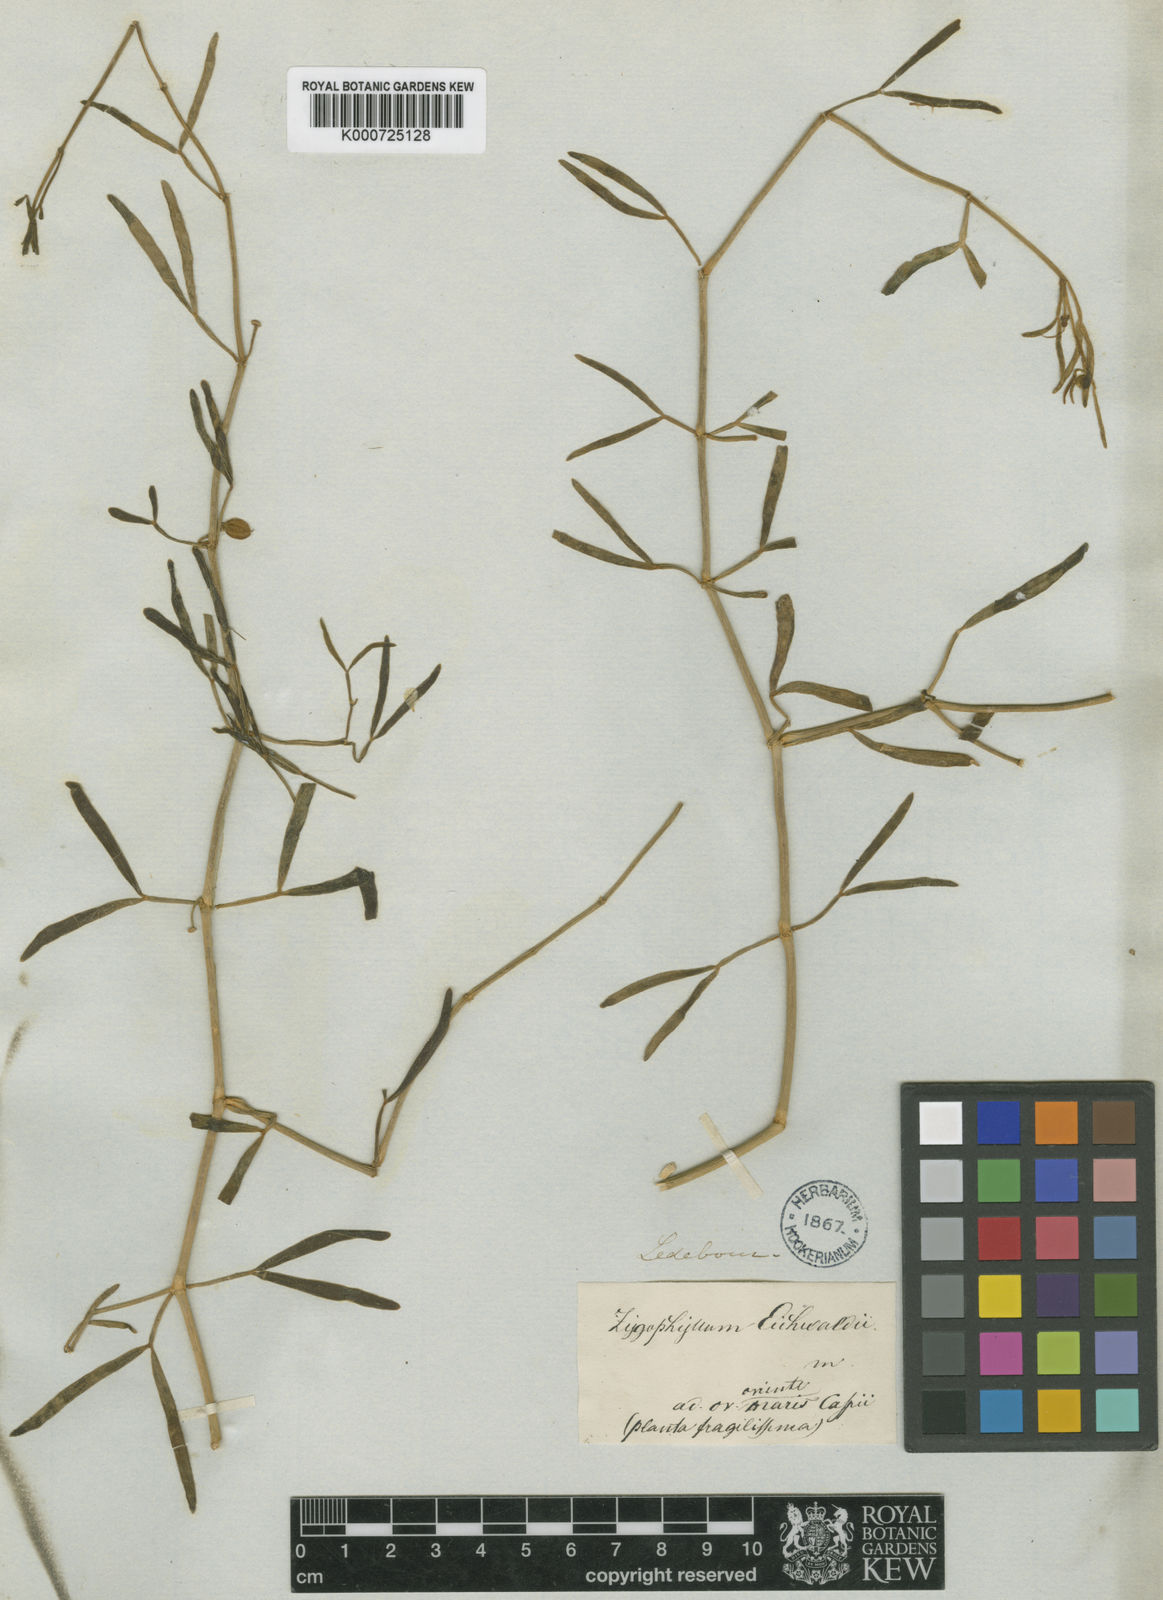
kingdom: Plantae
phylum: Tracheophyta
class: Magnoliopsida
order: Zygophyllales
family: Zygophyllaceae
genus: Zygophyllum
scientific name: Zygophyllum eichwaldii
